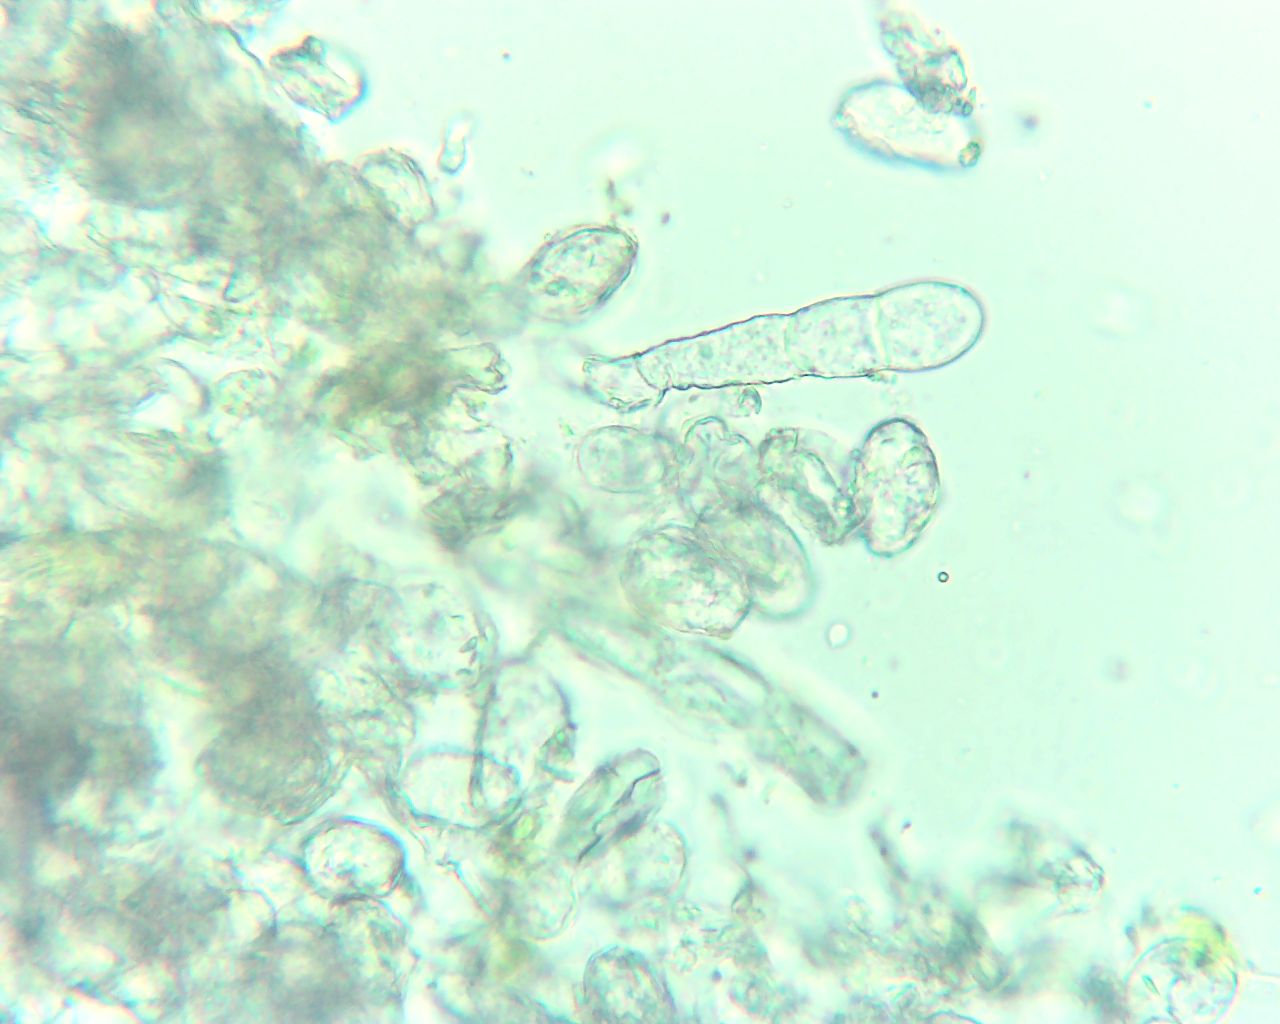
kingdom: Fungi
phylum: Ascomycota
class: Leotiomycetes
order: Helotiales
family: Erysiphaceae
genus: Sawadaea
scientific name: Sawadaea bicornis
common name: Maple mildew
